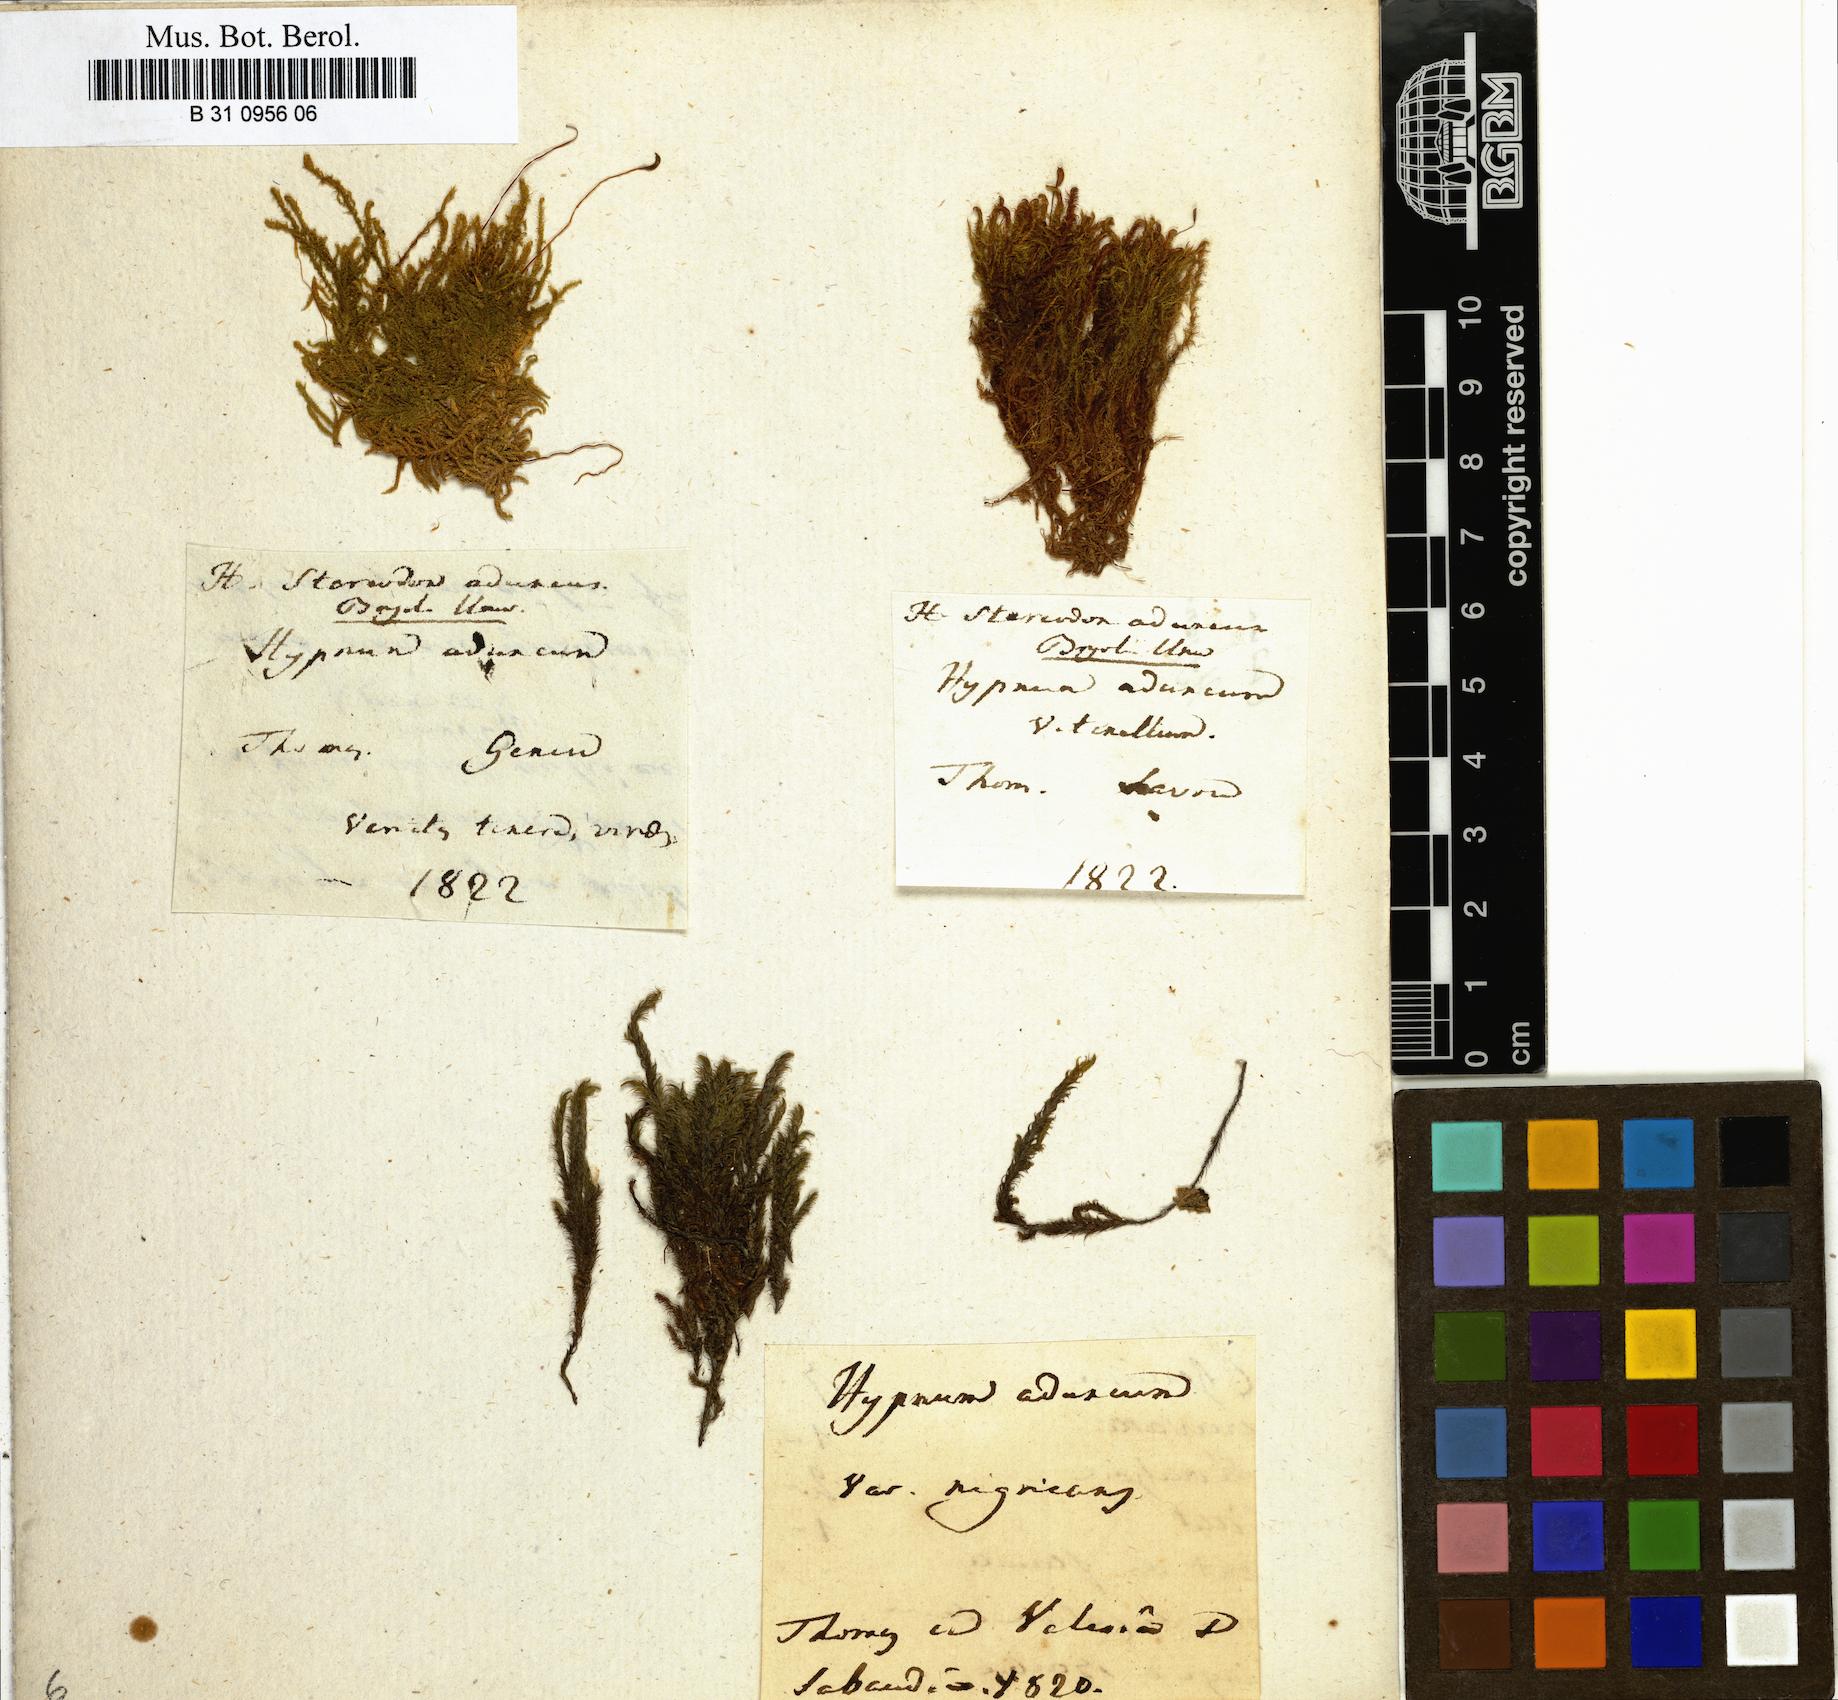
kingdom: Plantae
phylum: Bryophyta
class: Bryopsida
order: Hypnales
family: Amblystegiaceae
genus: Drepanocladus
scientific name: Drepanocladus aduncus
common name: Knieff's hook moss
